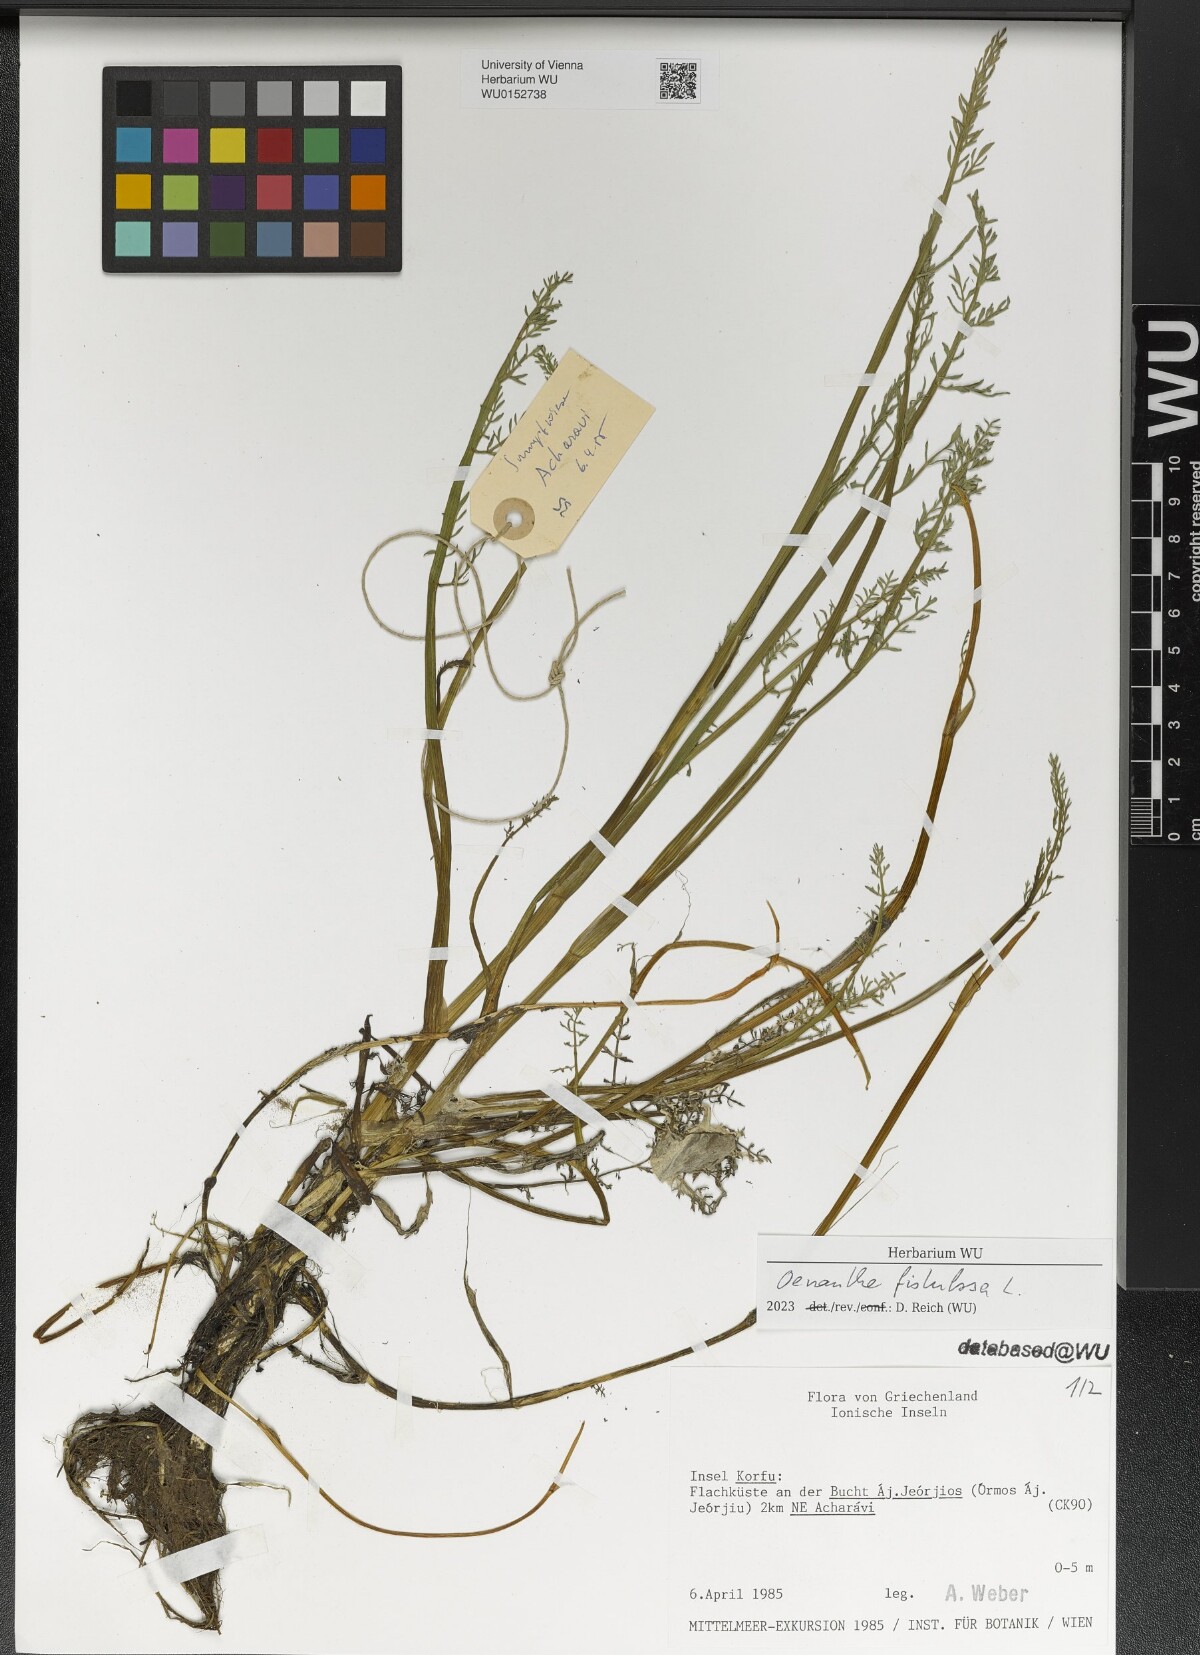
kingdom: Plantae
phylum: Tracheophyta
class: Magnoliopsida
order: Apiales
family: Apiaceae
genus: Oenanthe
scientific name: Oenanthe fistulosa
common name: Tubular water-dropwort
